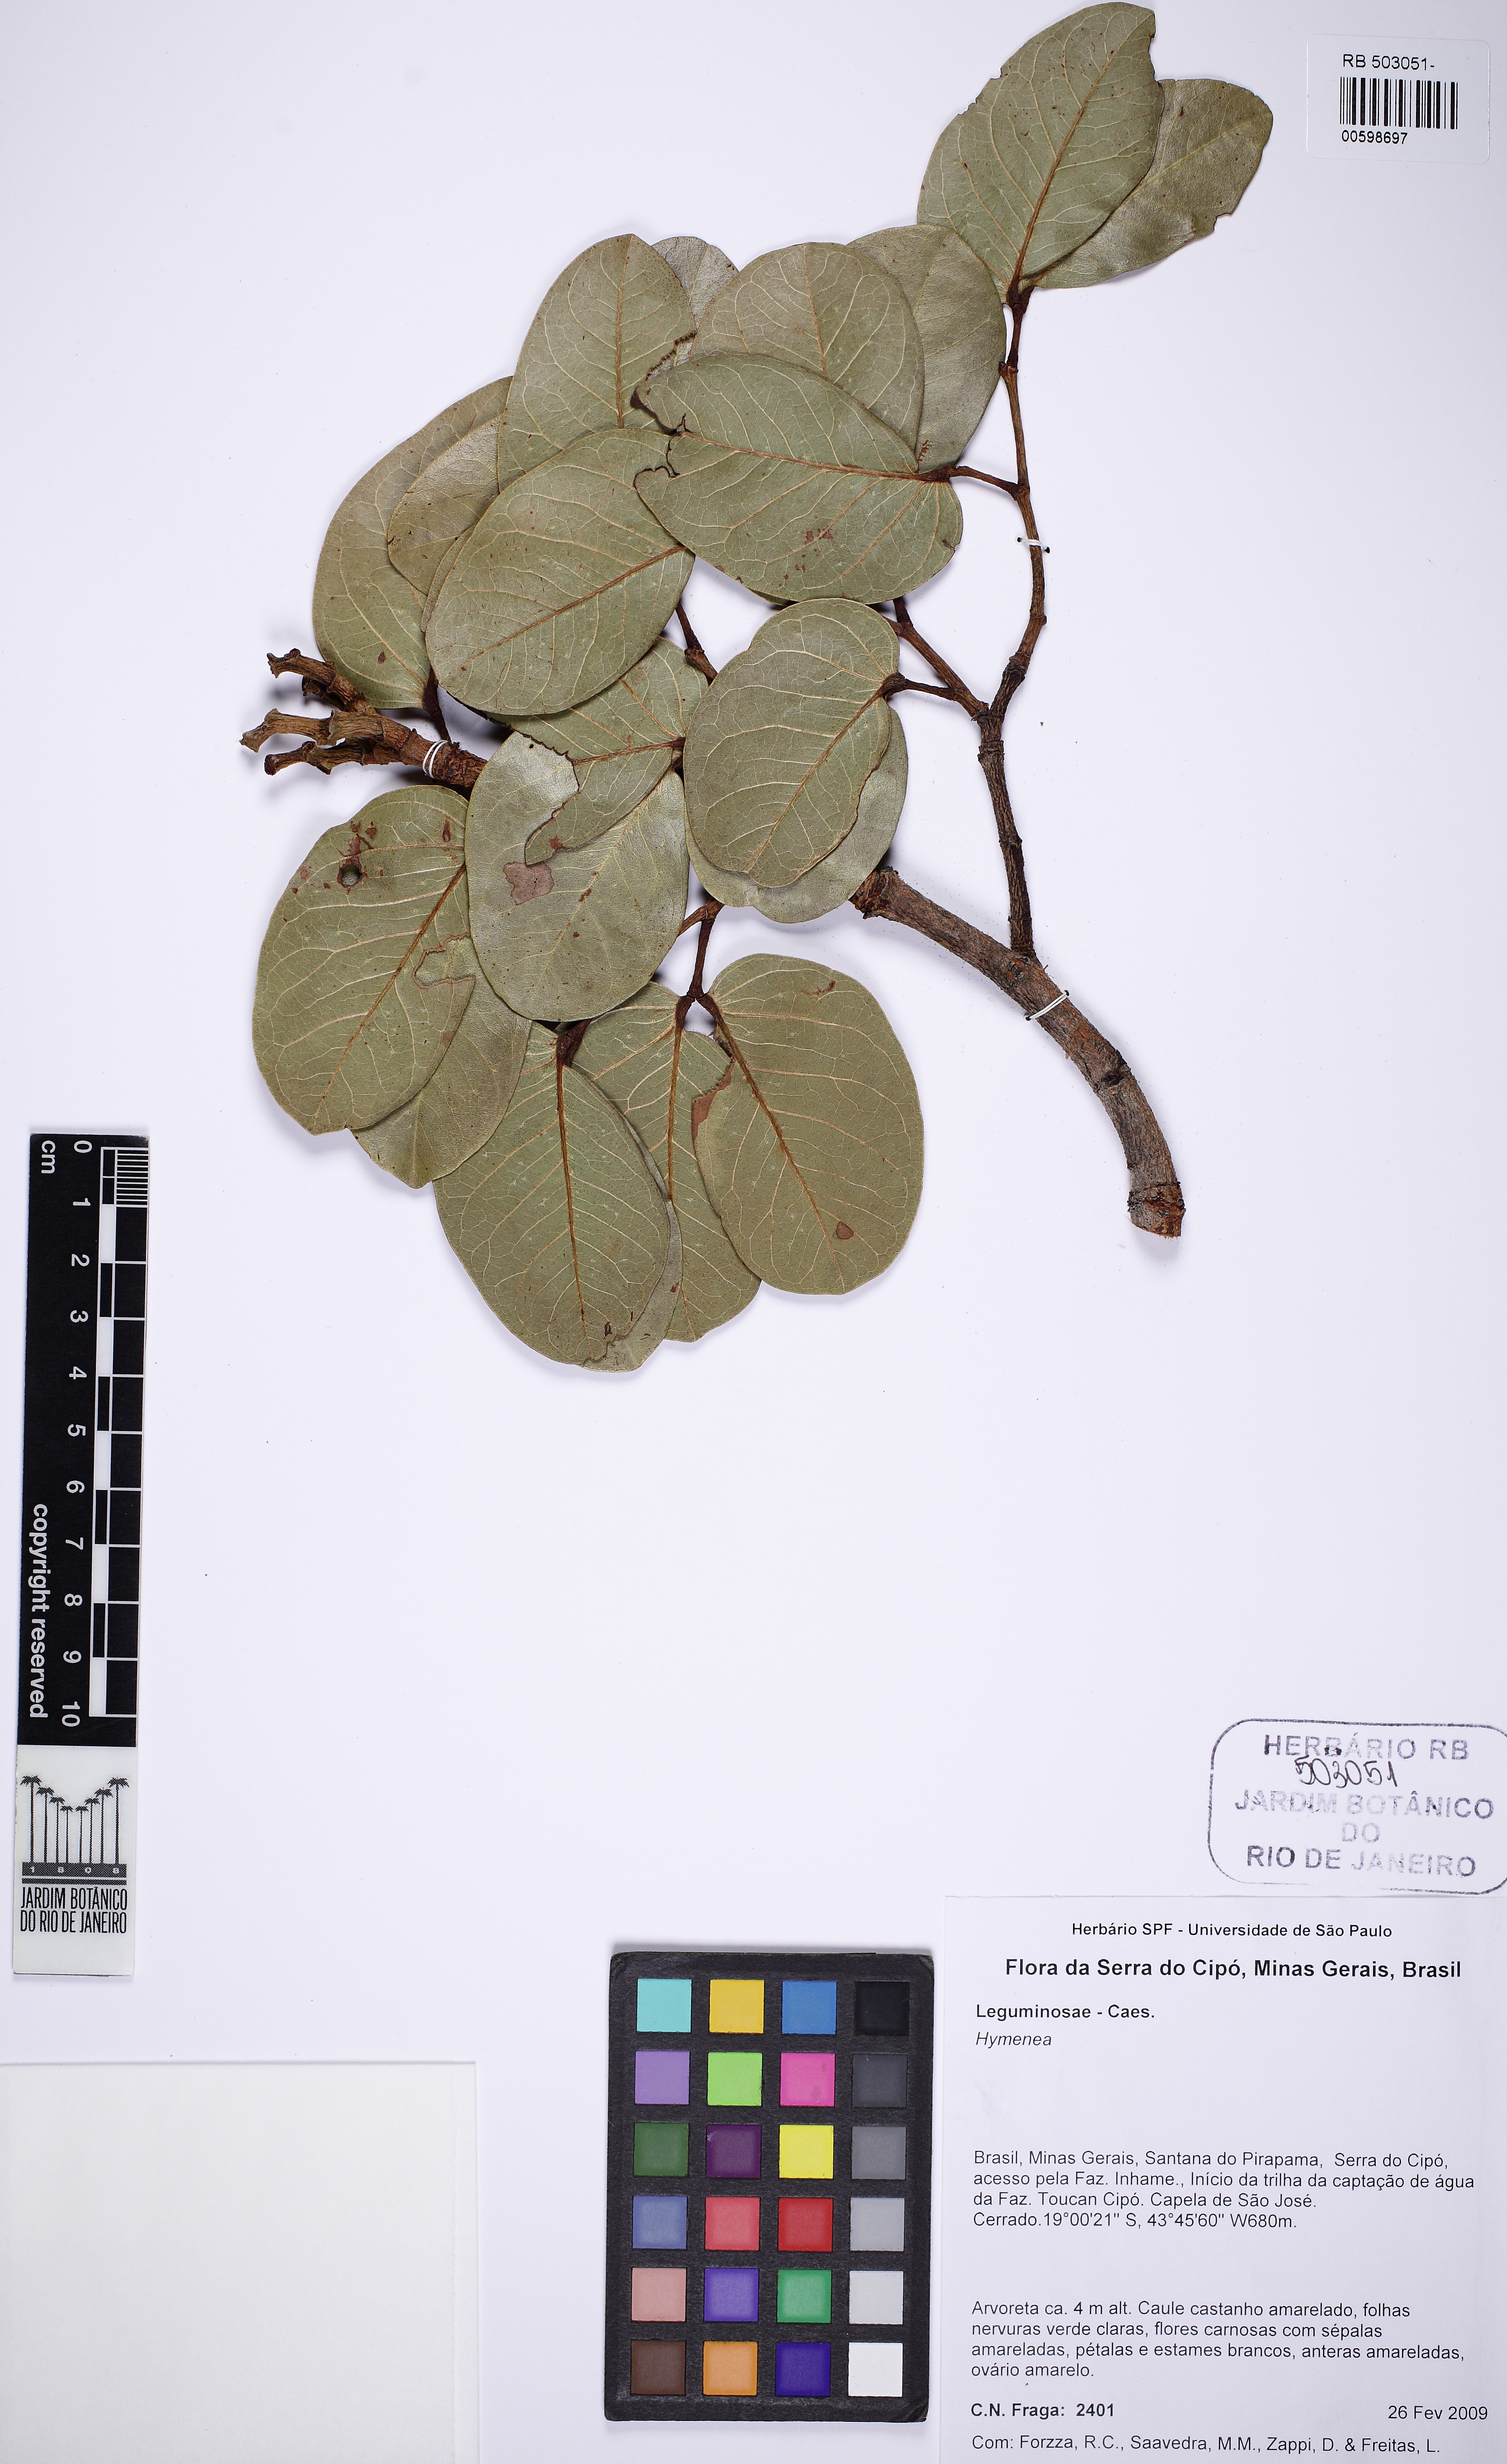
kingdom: Plantae
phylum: Tracheophyta
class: Magnoliopsida
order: Fabales
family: Fabaceae
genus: Hymenaea
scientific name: Hymenaea stigonocarpa
